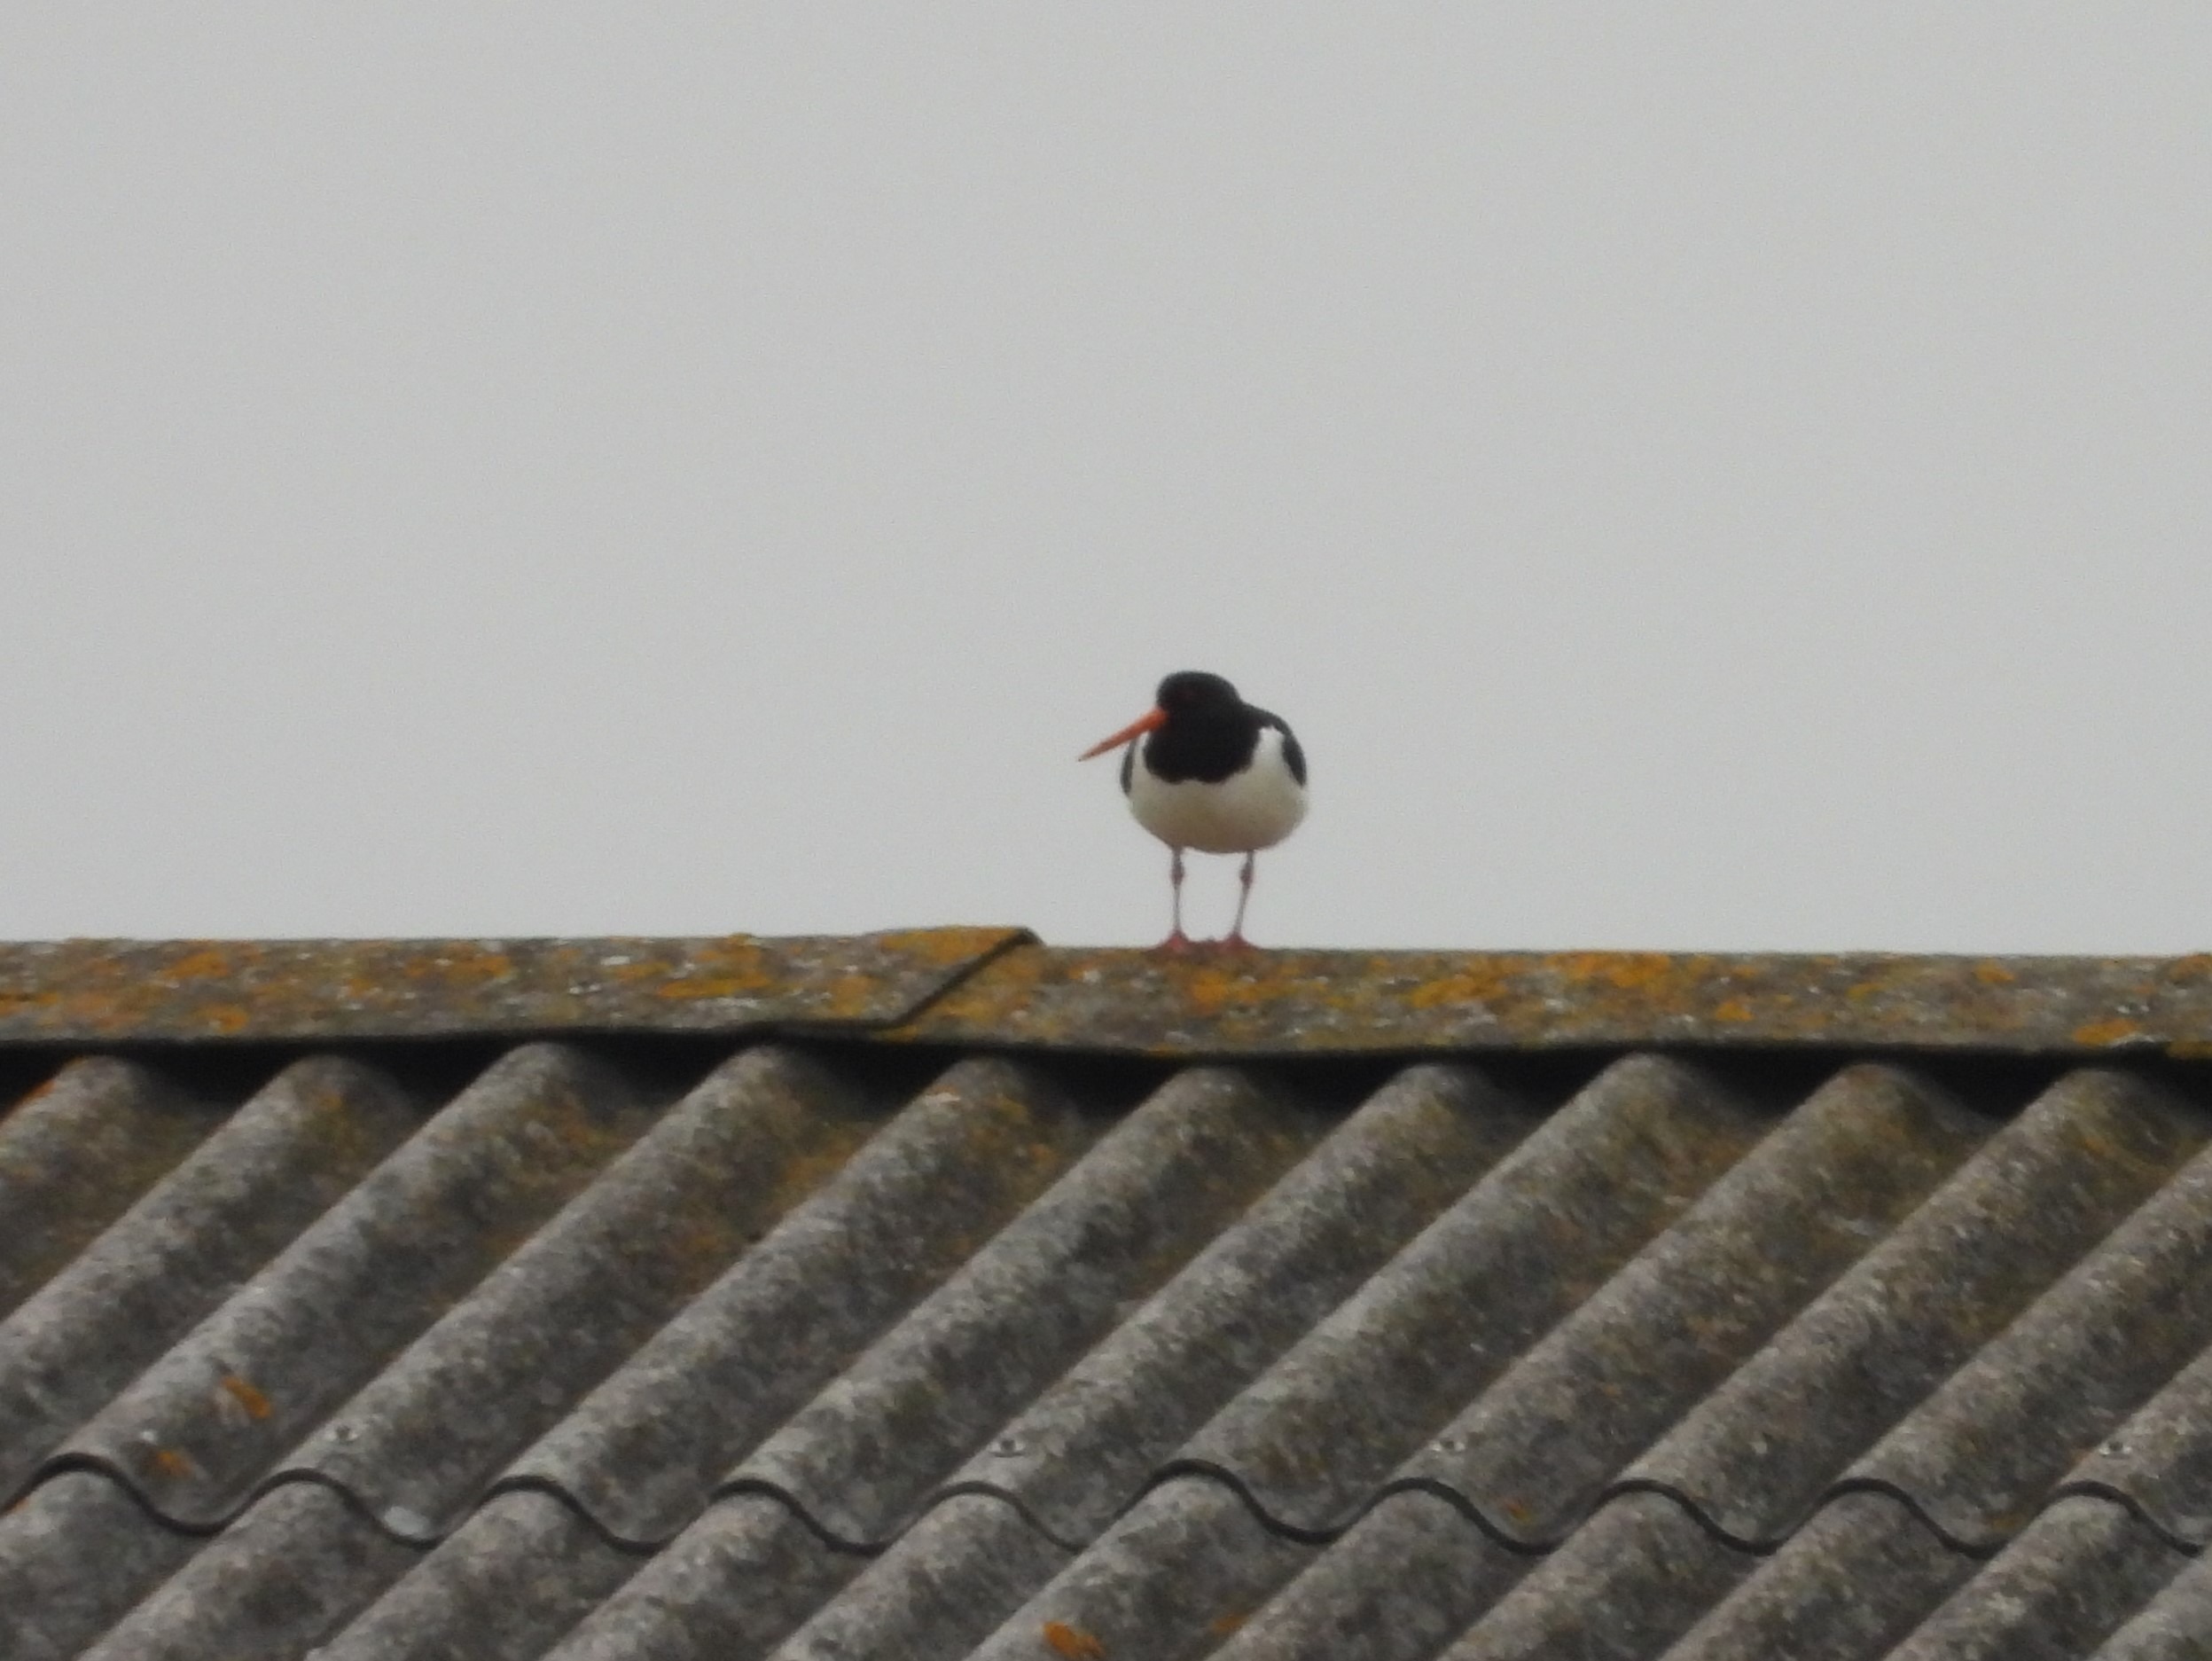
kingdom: Animalia
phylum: Chordata
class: Aves
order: Charadriiformes
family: Haematopodidae
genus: Haematopus
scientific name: Haematopus ostralegus
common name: Strandskade
